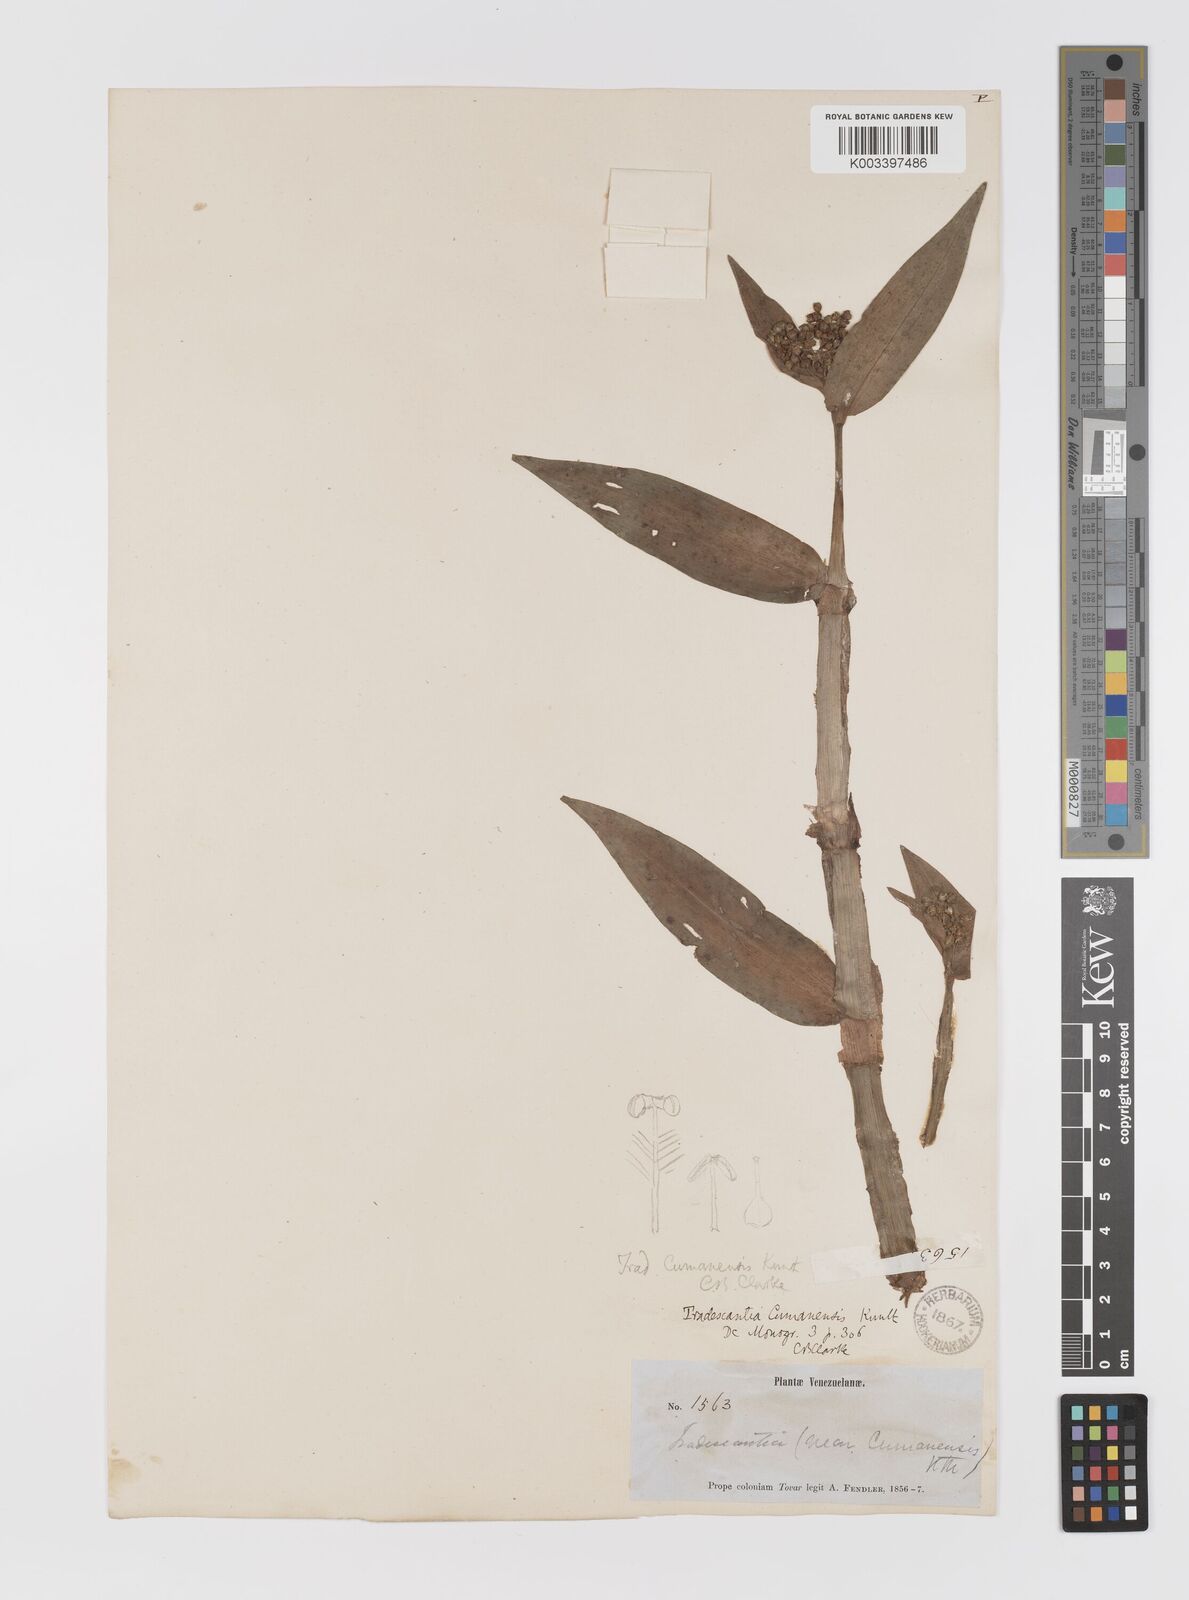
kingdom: Plantae
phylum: Tracheophyta
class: Liliopsida
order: Commelinales
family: Commelinaceae
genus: Callisia
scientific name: Callisia serrulata
